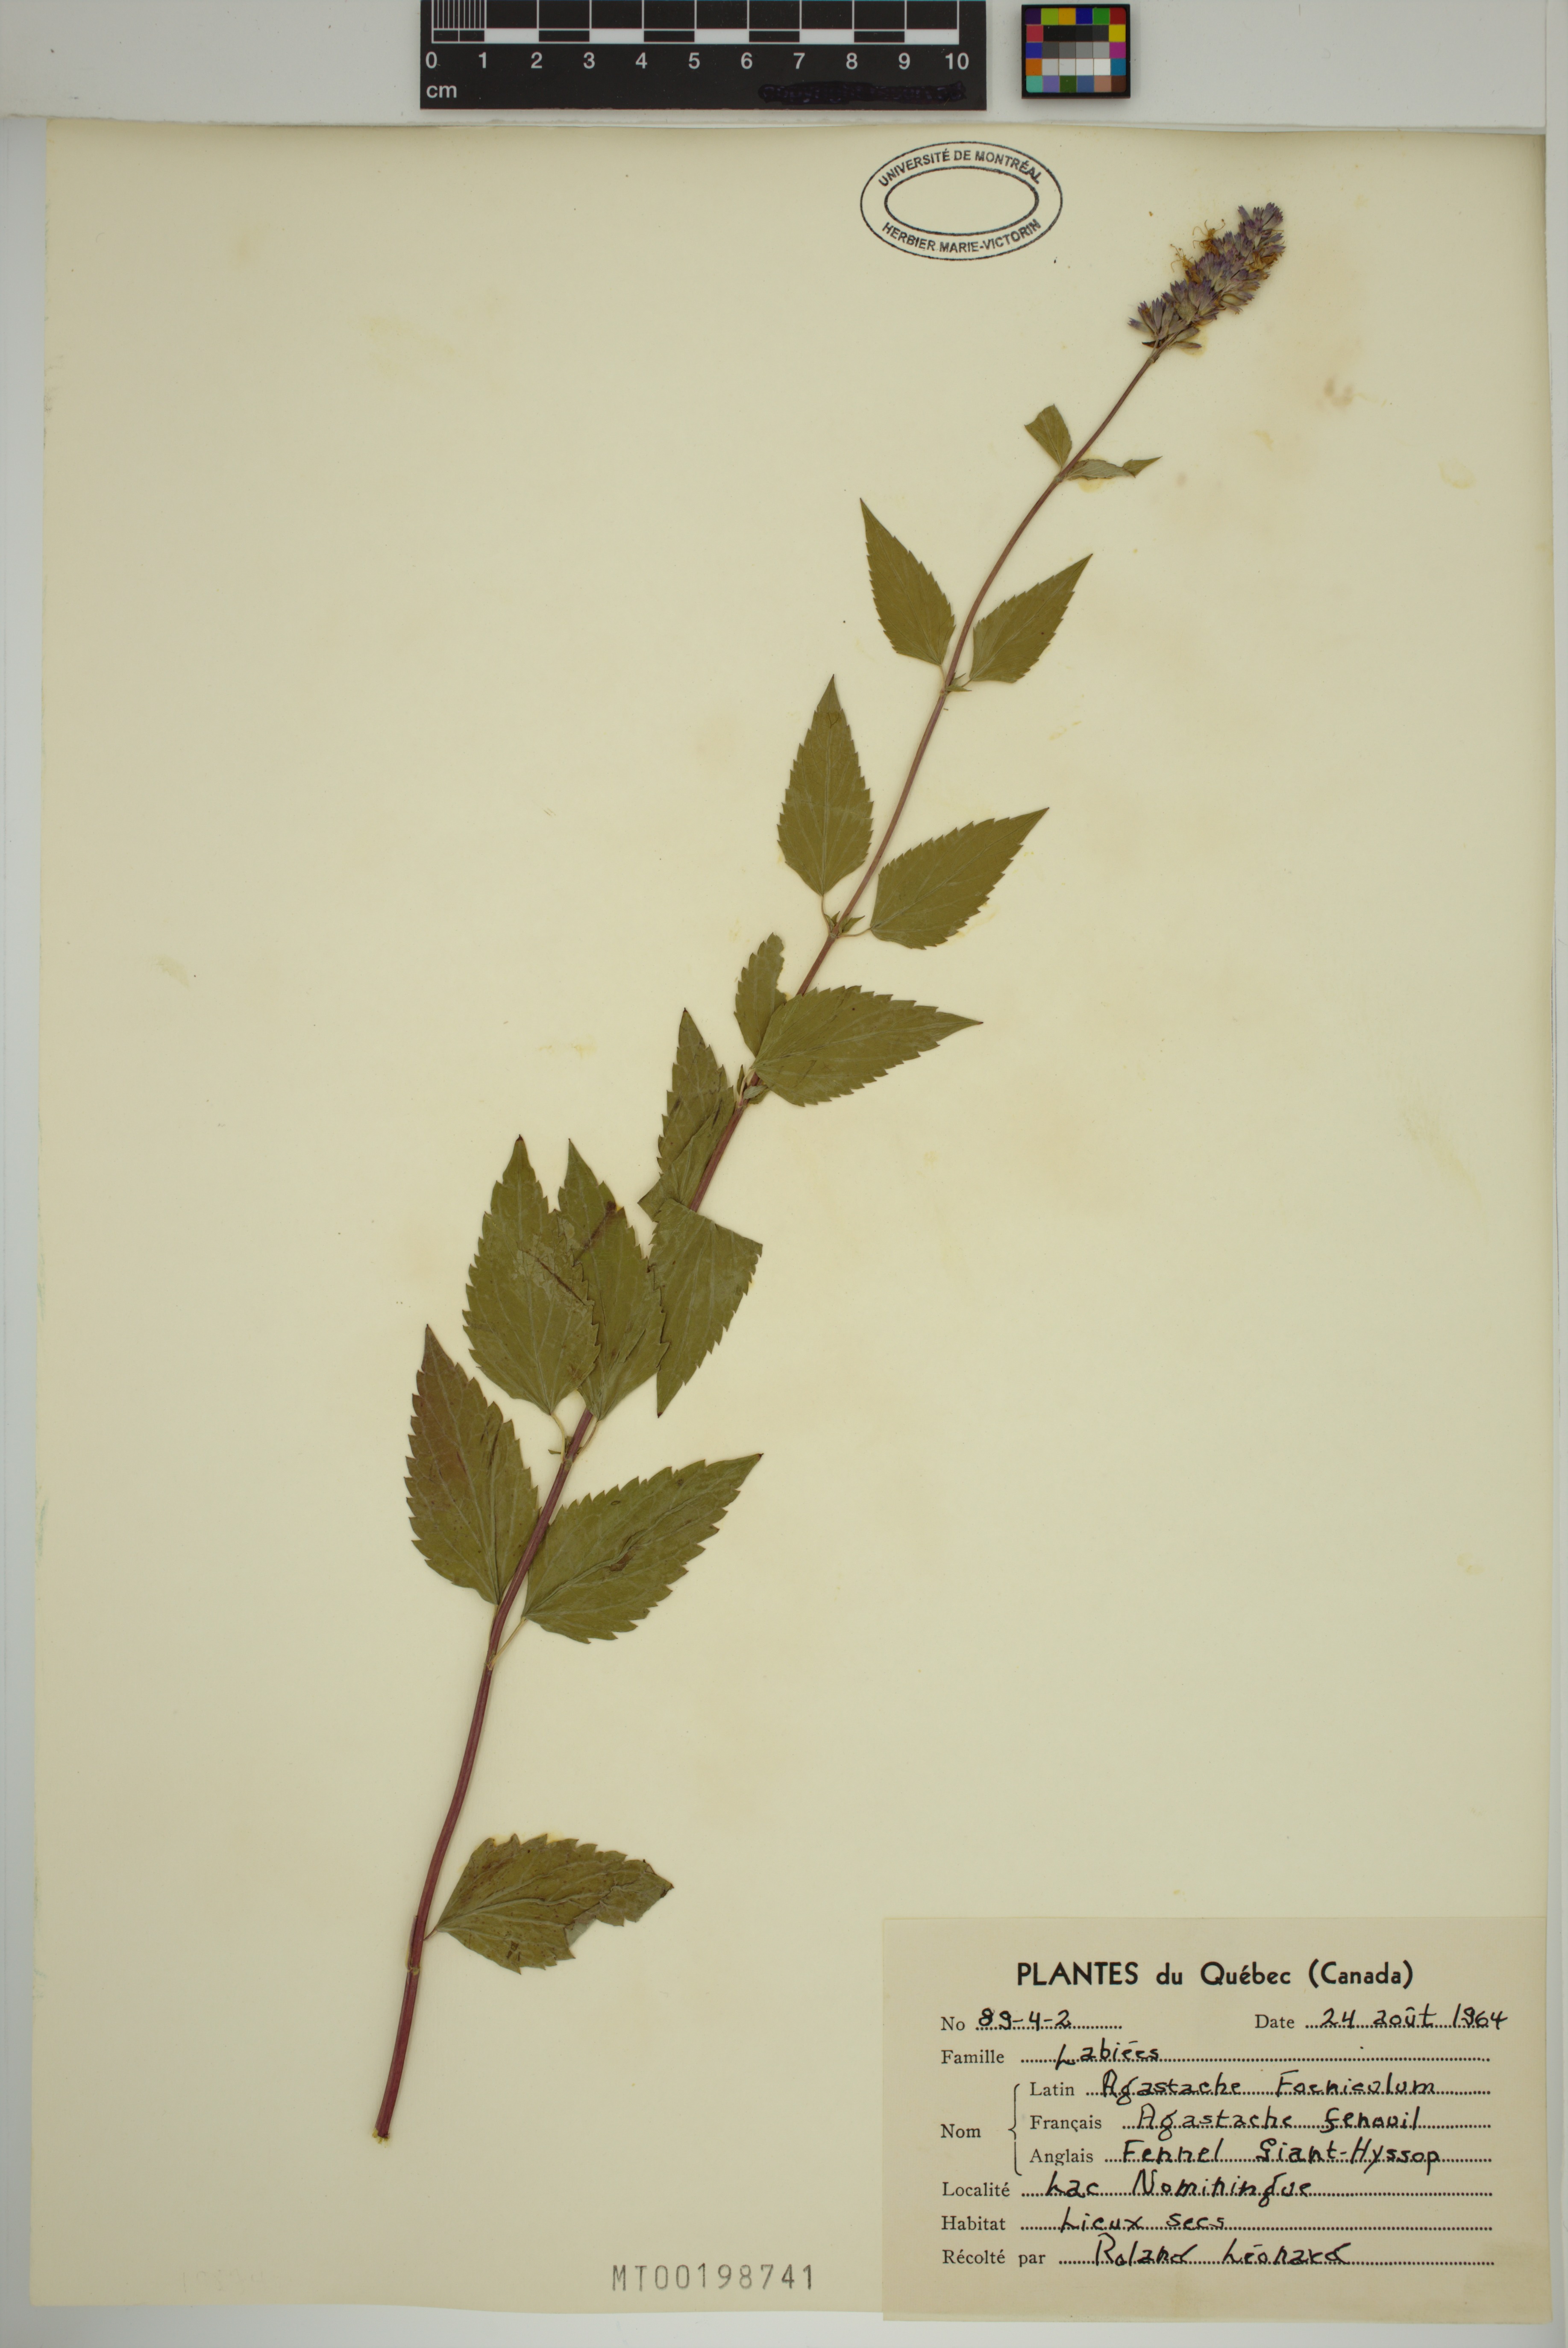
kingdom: Plantae
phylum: Tracheophyta
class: Magnoliopsida
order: Lamiales
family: Lamiaceae
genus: Agastache
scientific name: Agastache foeniculum
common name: Anise hyssop
